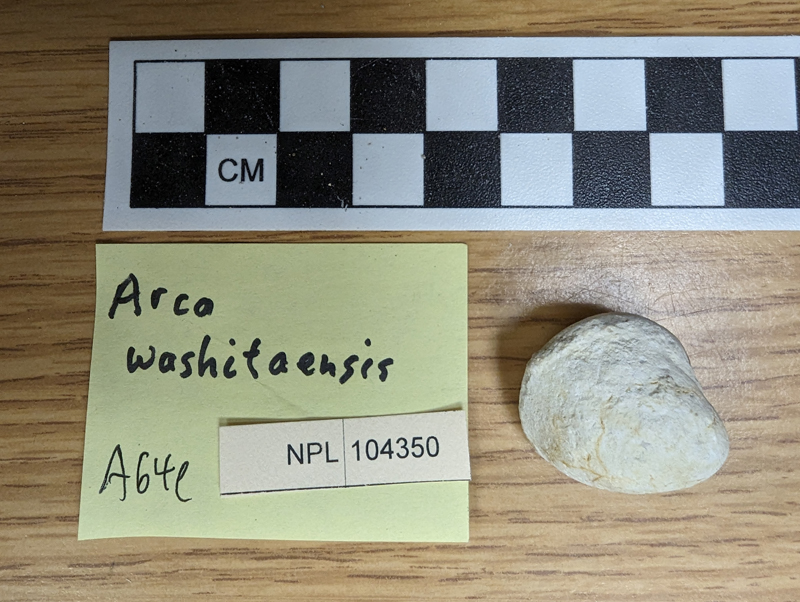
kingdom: Animalia
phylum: Mollusca
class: Bivalvia
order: Arcida
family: Arcidae
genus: Arca
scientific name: Arca
